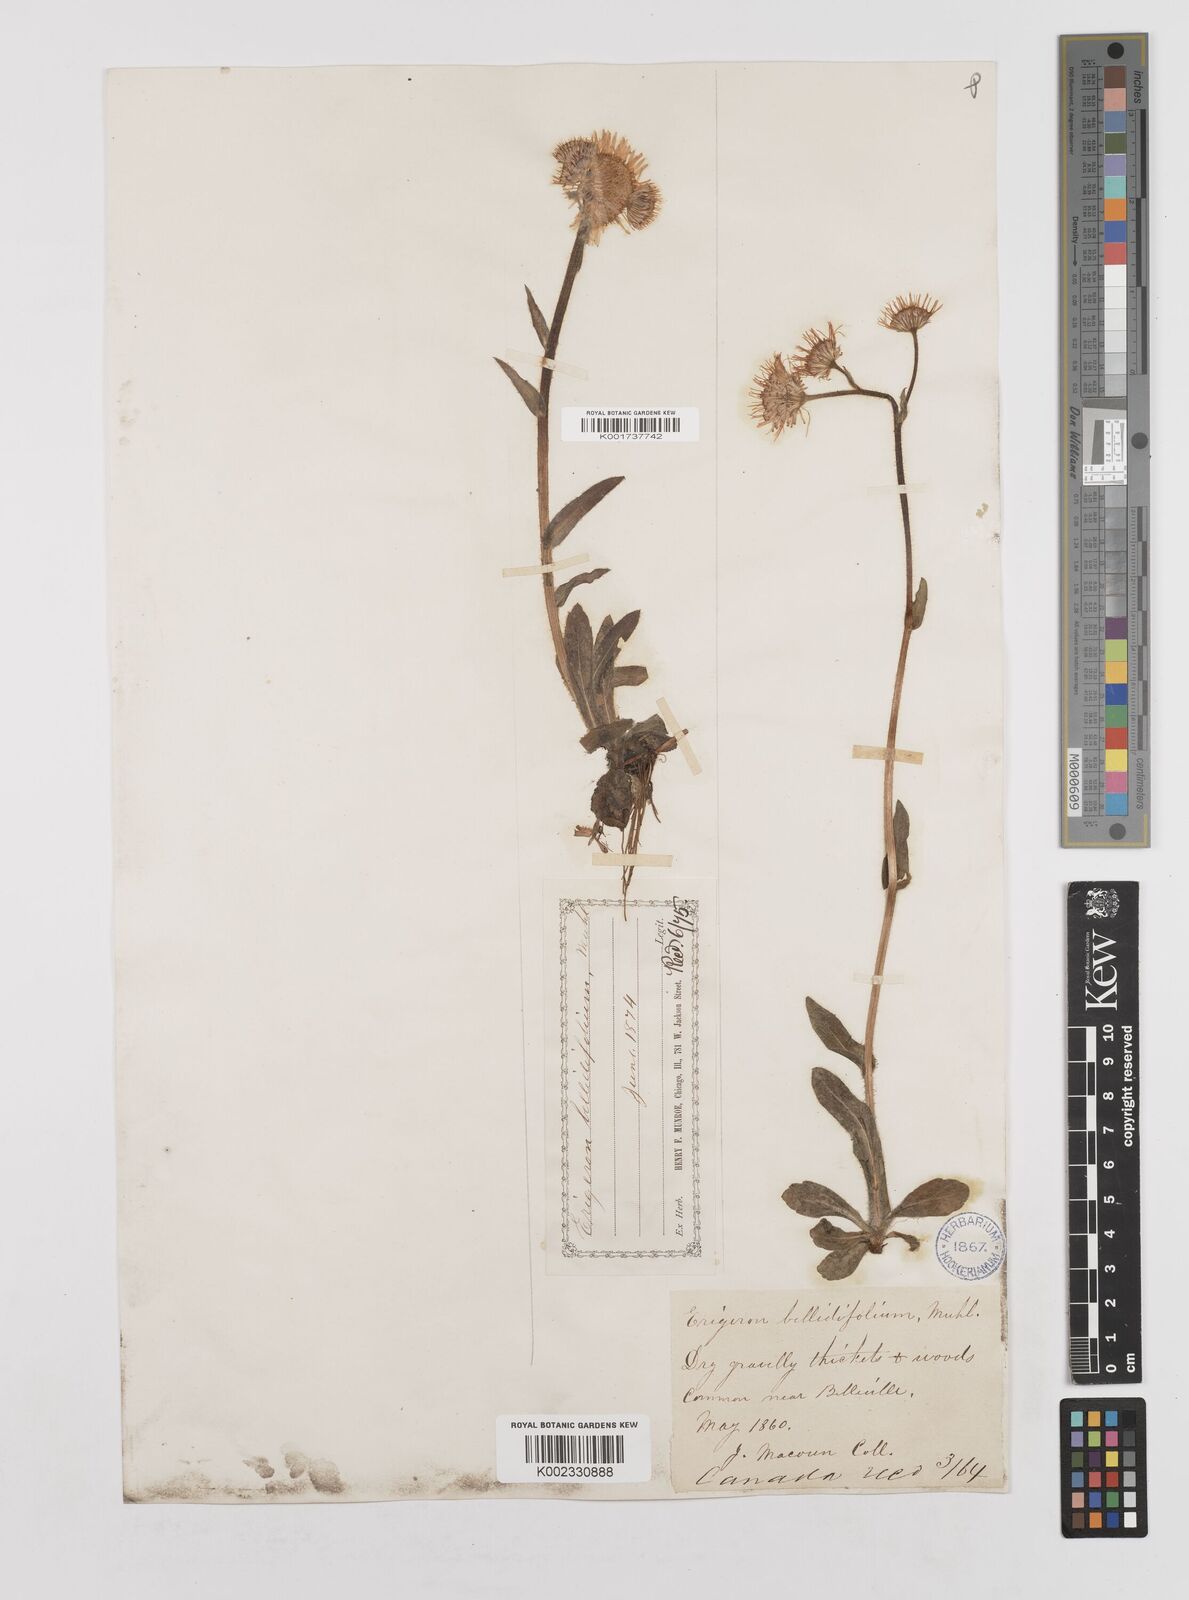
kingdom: Plantae
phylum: Tracheophyta
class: Magnoliopsida
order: Asterales
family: Asteraceae
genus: Erigeron
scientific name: Erigeron pulchellus
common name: Hairy fleabane
